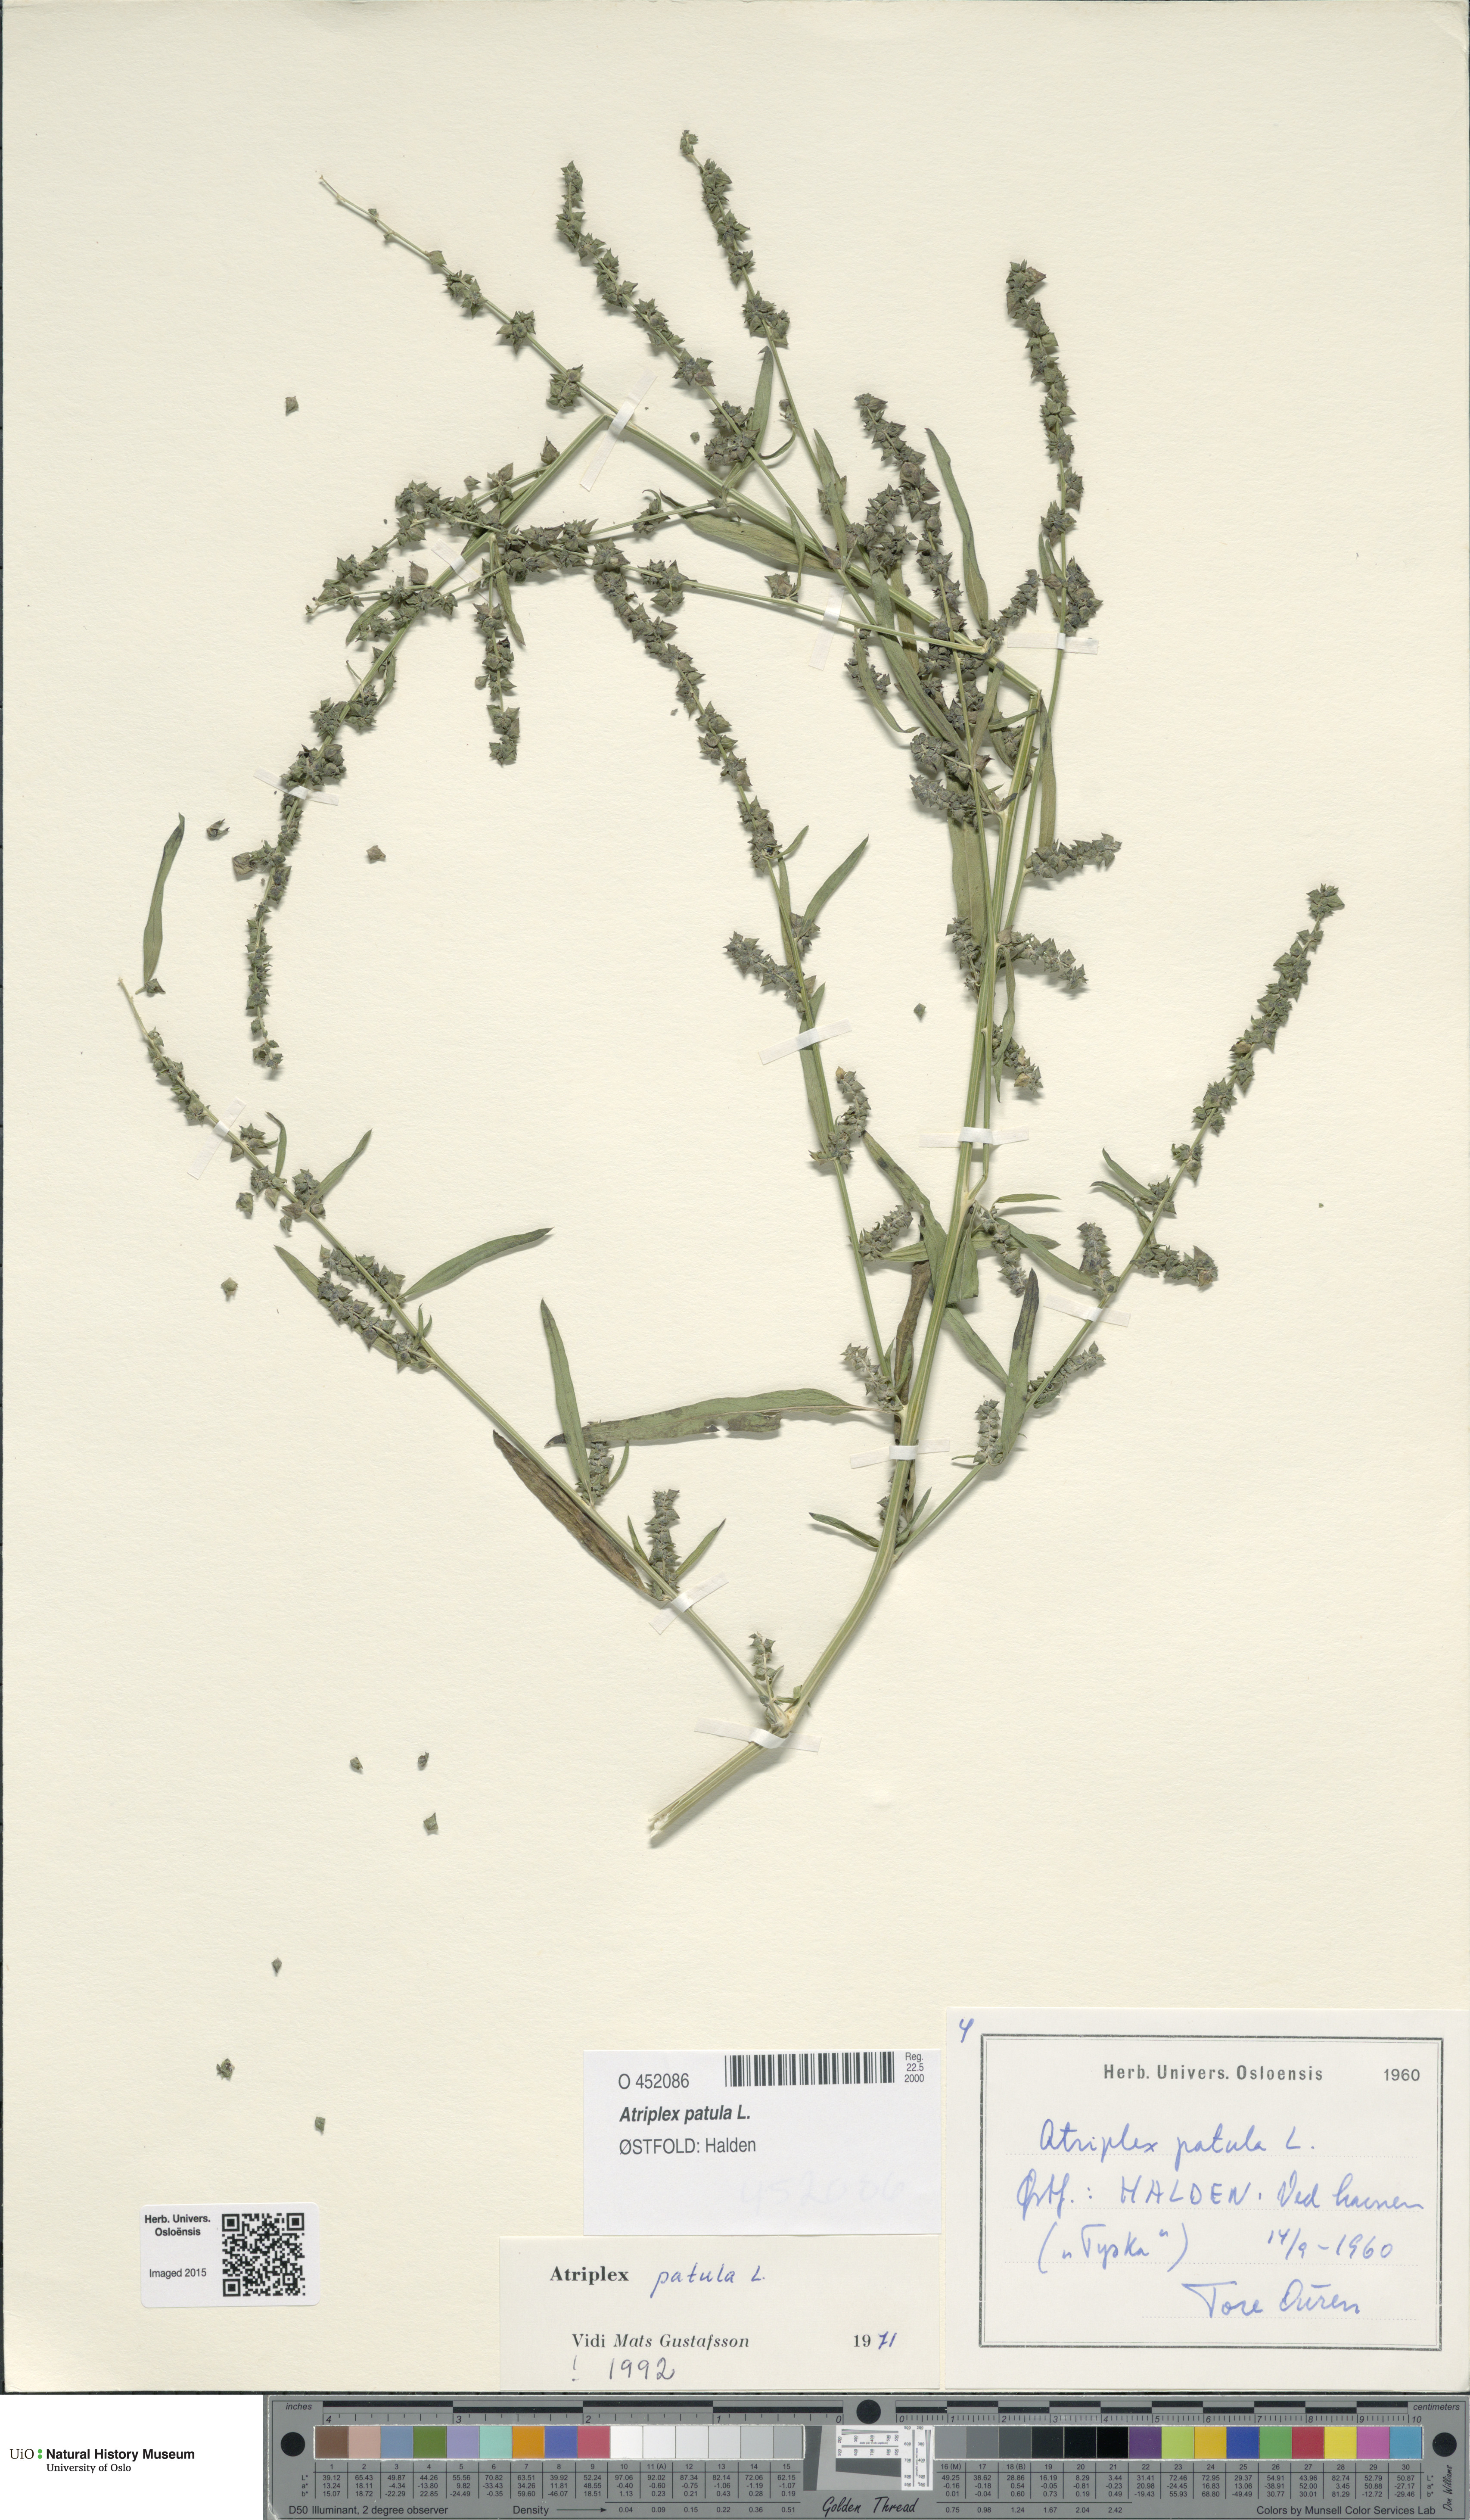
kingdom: Plantae
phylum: Tracheophyta
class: Magnoliopsida
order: Caryophyllales
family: Amaranthaceae
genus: Atriplex
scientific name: Atriplex patula
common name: Common orache
